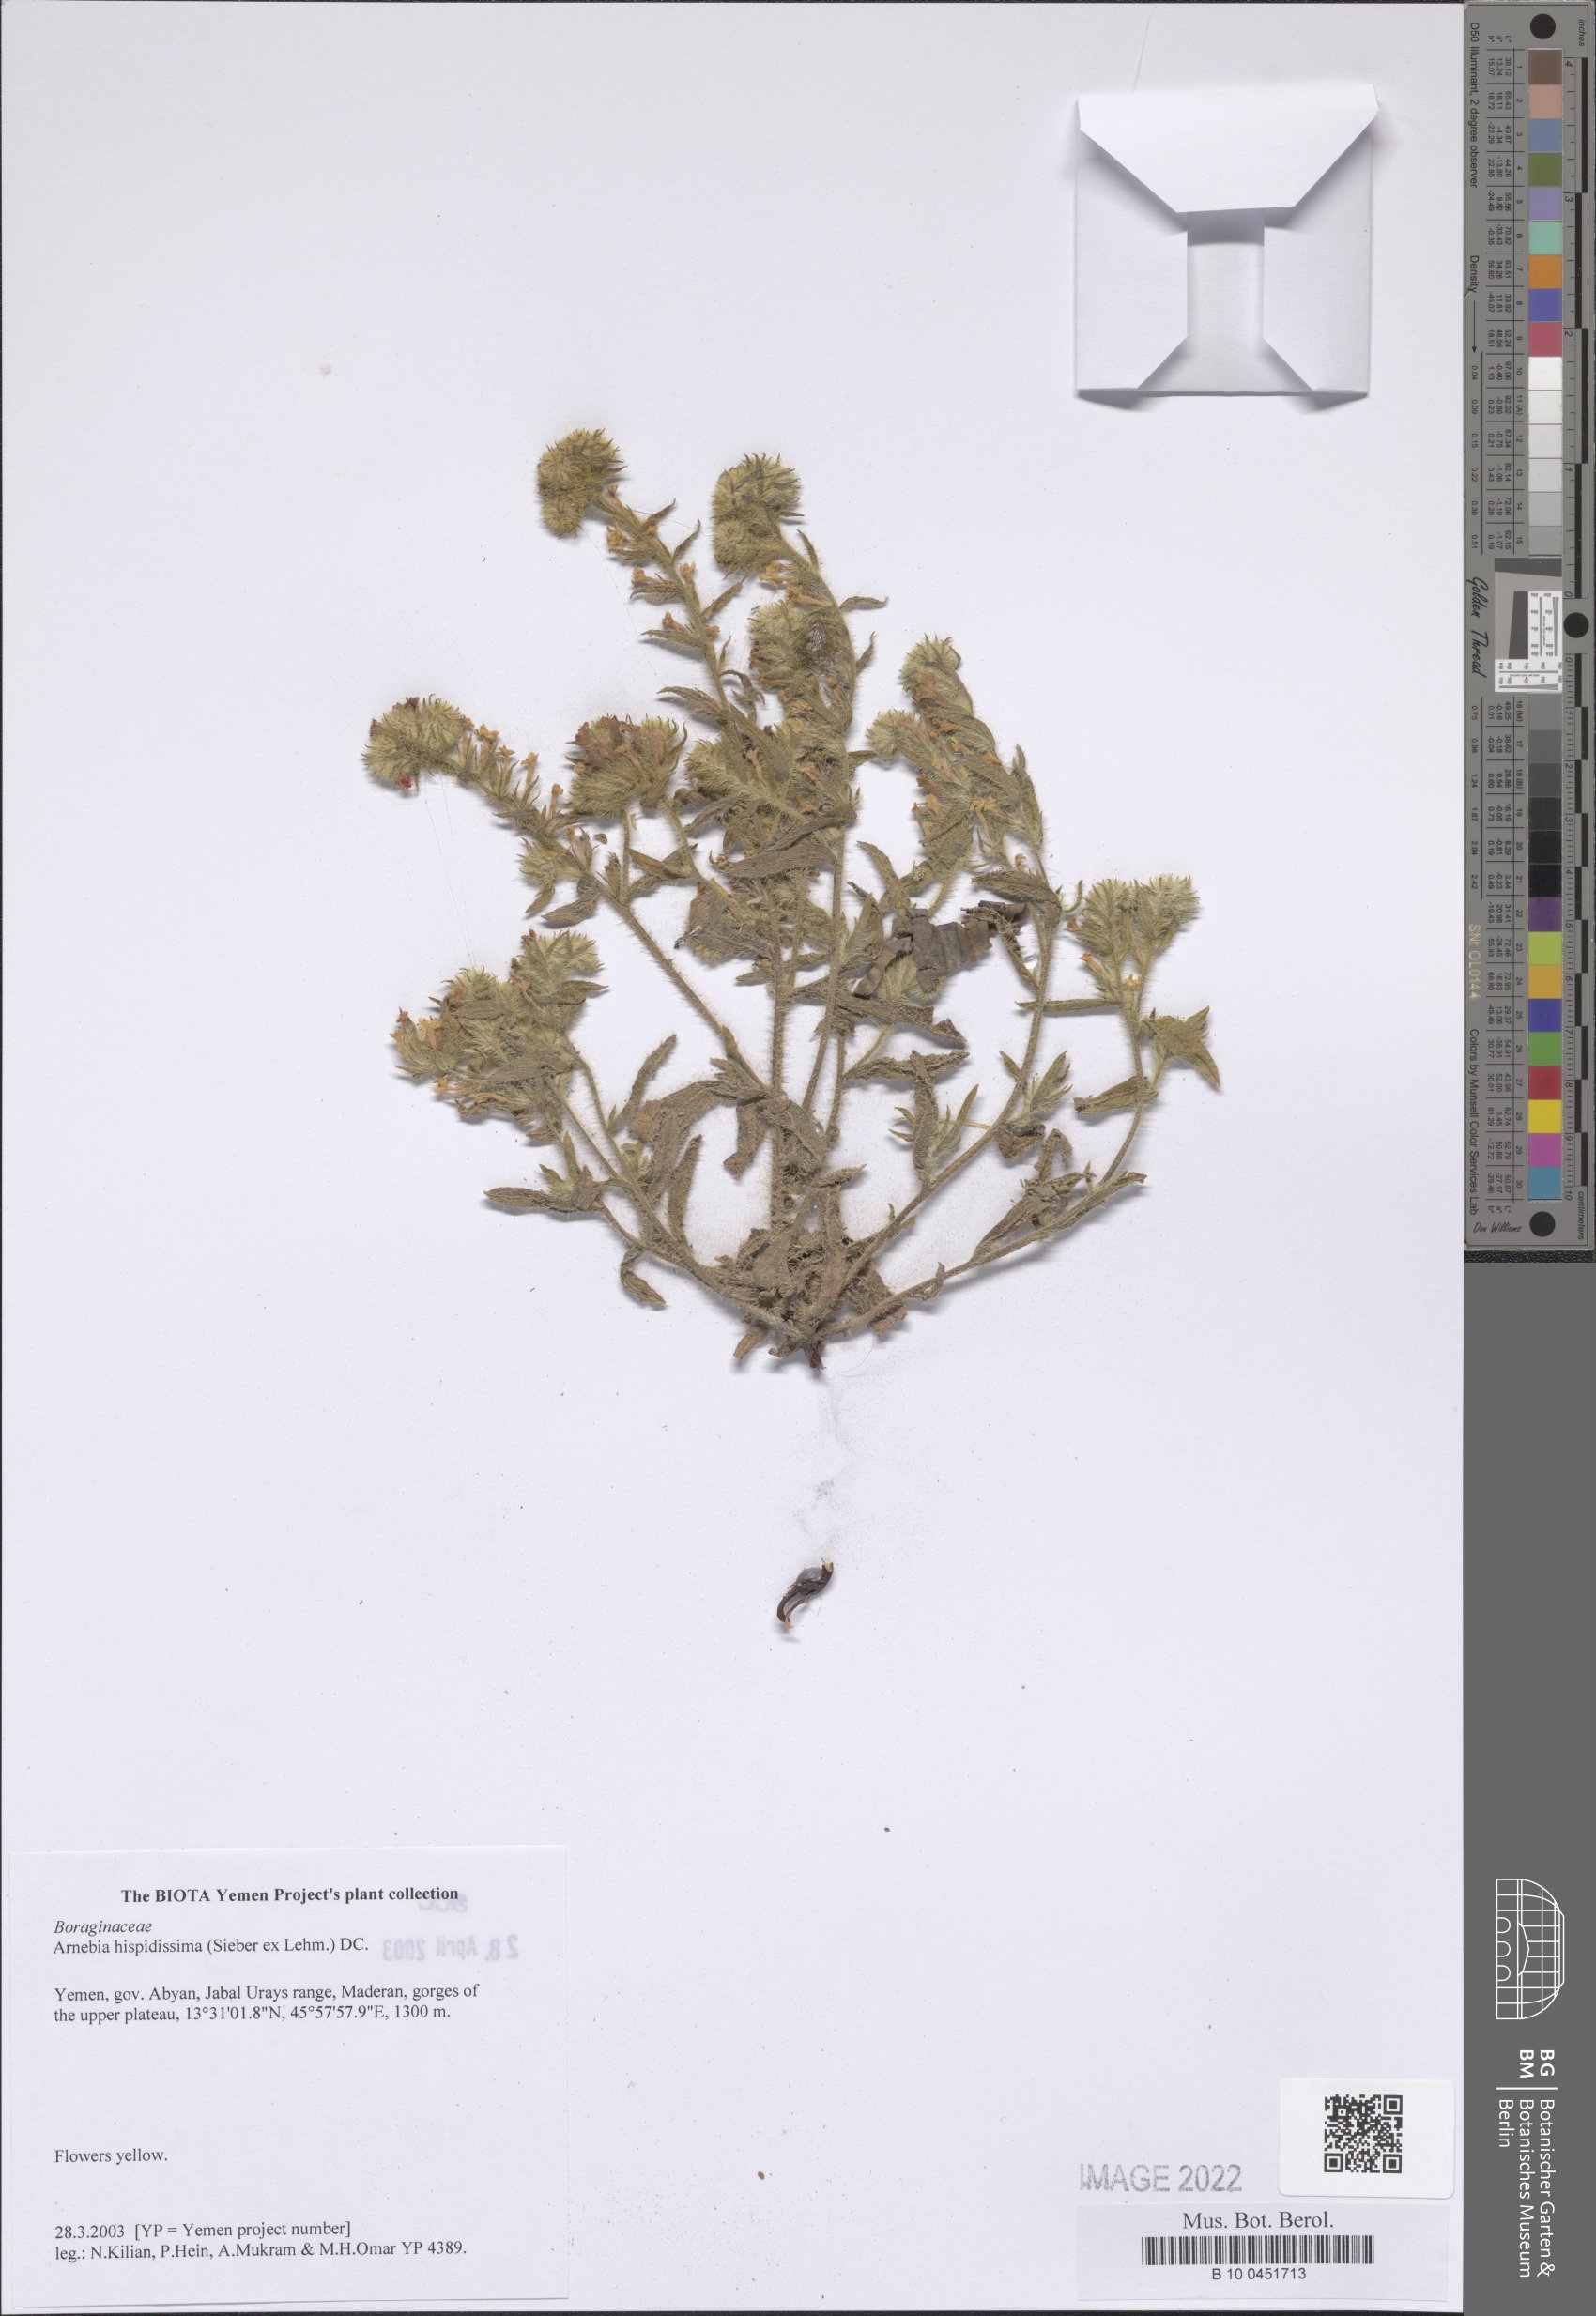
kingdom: Plantae
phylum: Tracheophyta
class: Magnoliopsida
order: Boraginales
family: Boraginaceae
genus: Arnebia
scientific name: Arnebia hispidissima
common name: Arabian-primrose
